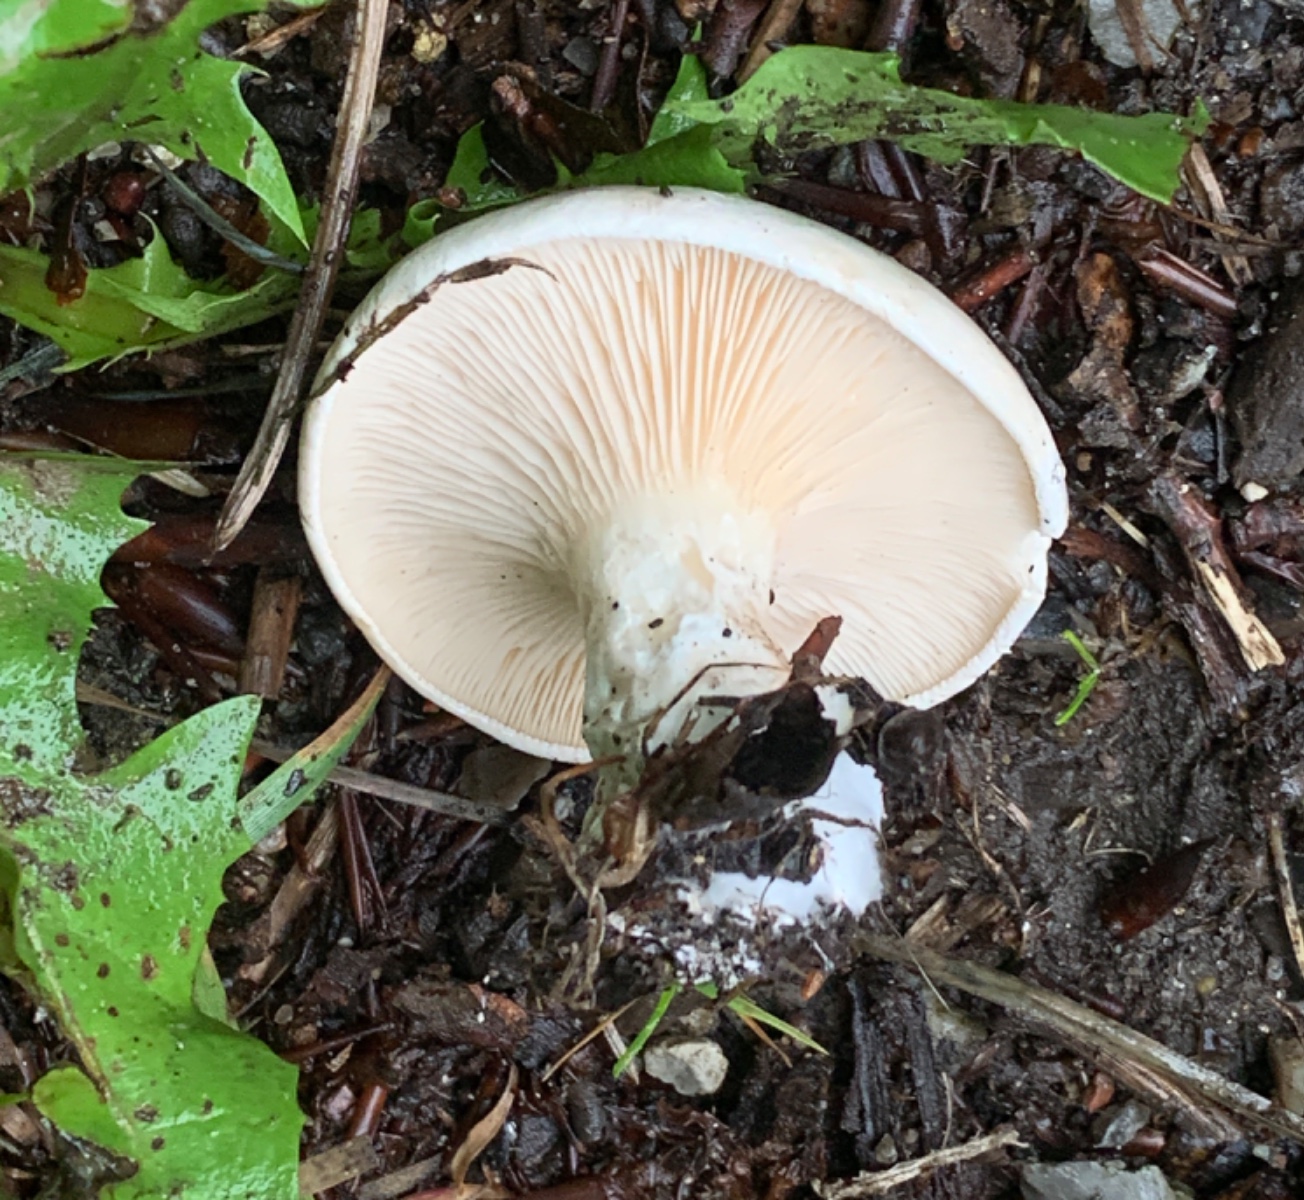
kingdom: Fungi
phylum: Basidiomycota
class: Agaricomycetes
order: Agaricales
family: Entolomataceae
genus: Clitopilus
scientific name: Clitopilus prunulus
